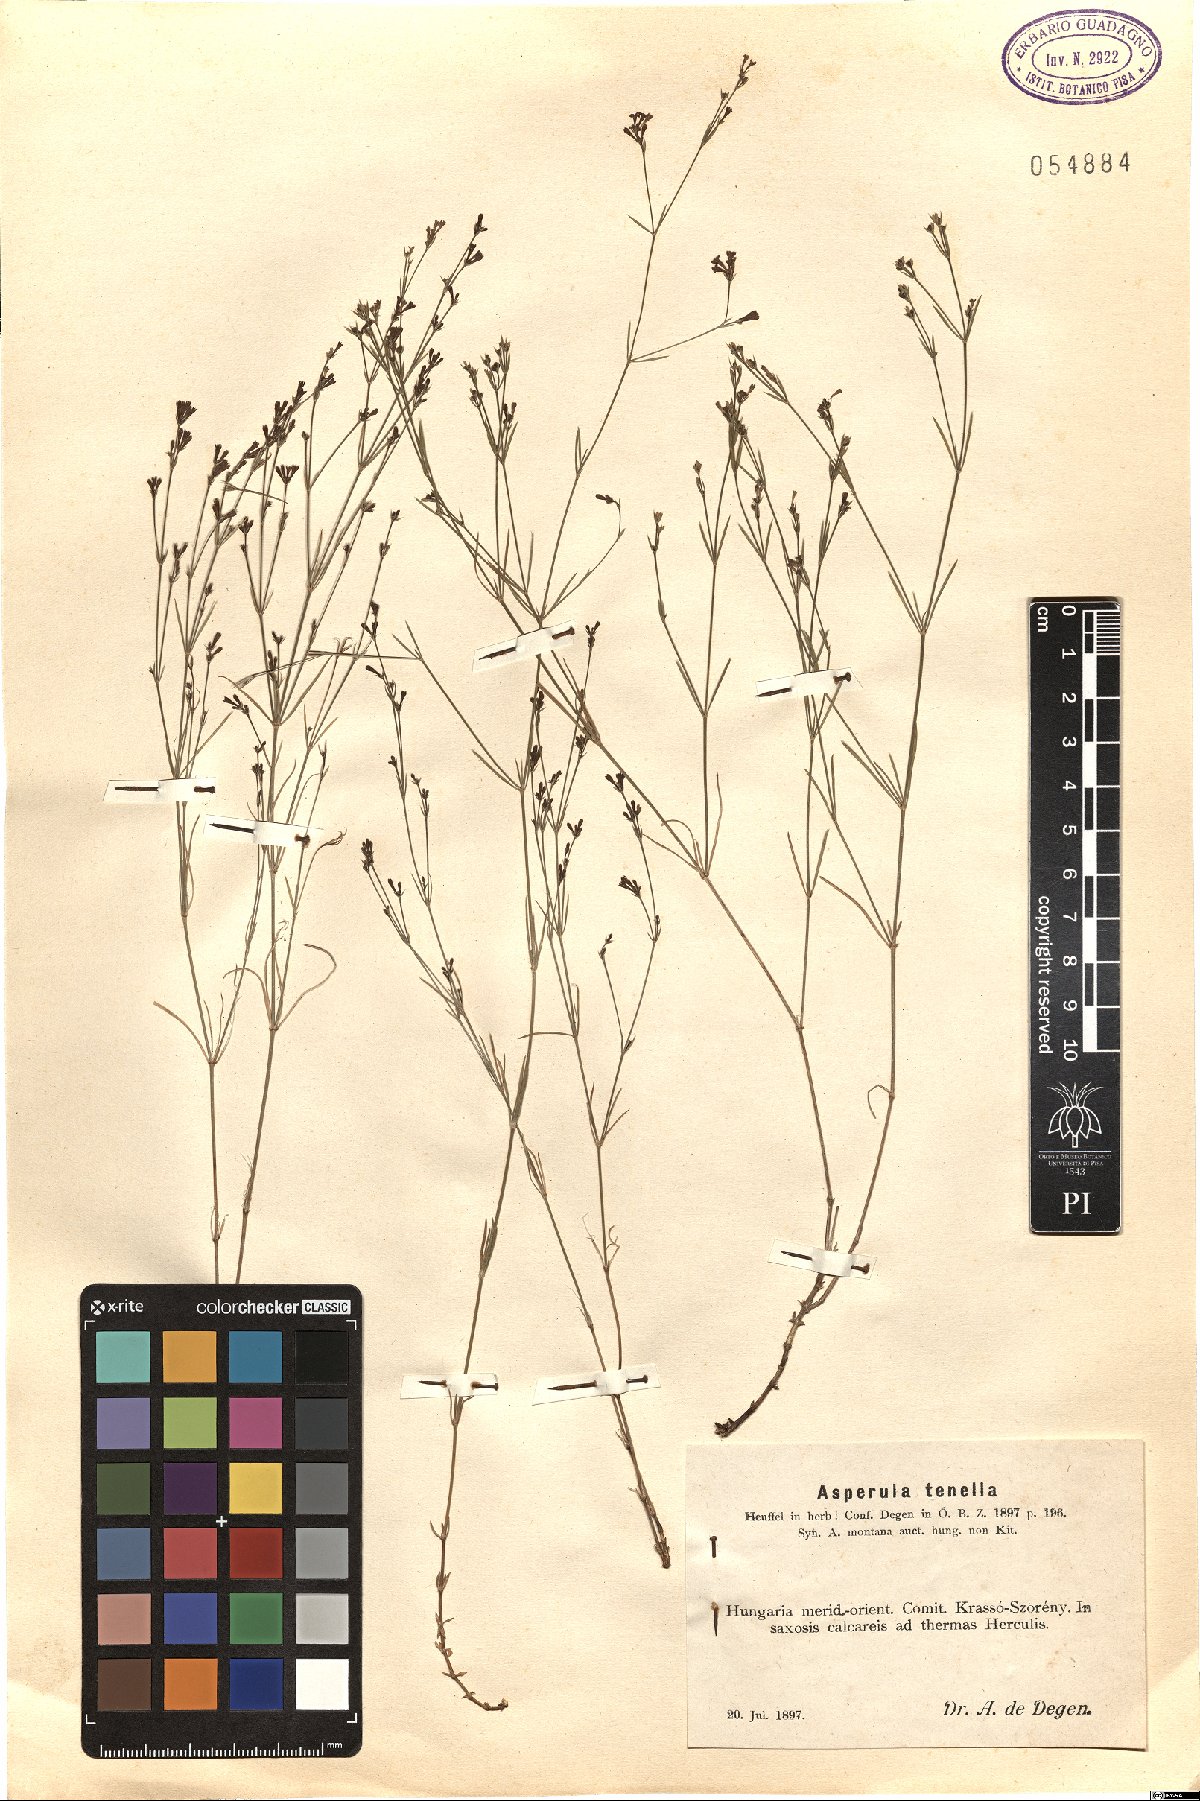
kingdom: Plantae
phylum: Tracheophyta
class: Magnoliopsida
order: Gentianales
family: Rubiaceae
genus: Cynanchica
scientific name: Cynanchica tenella
